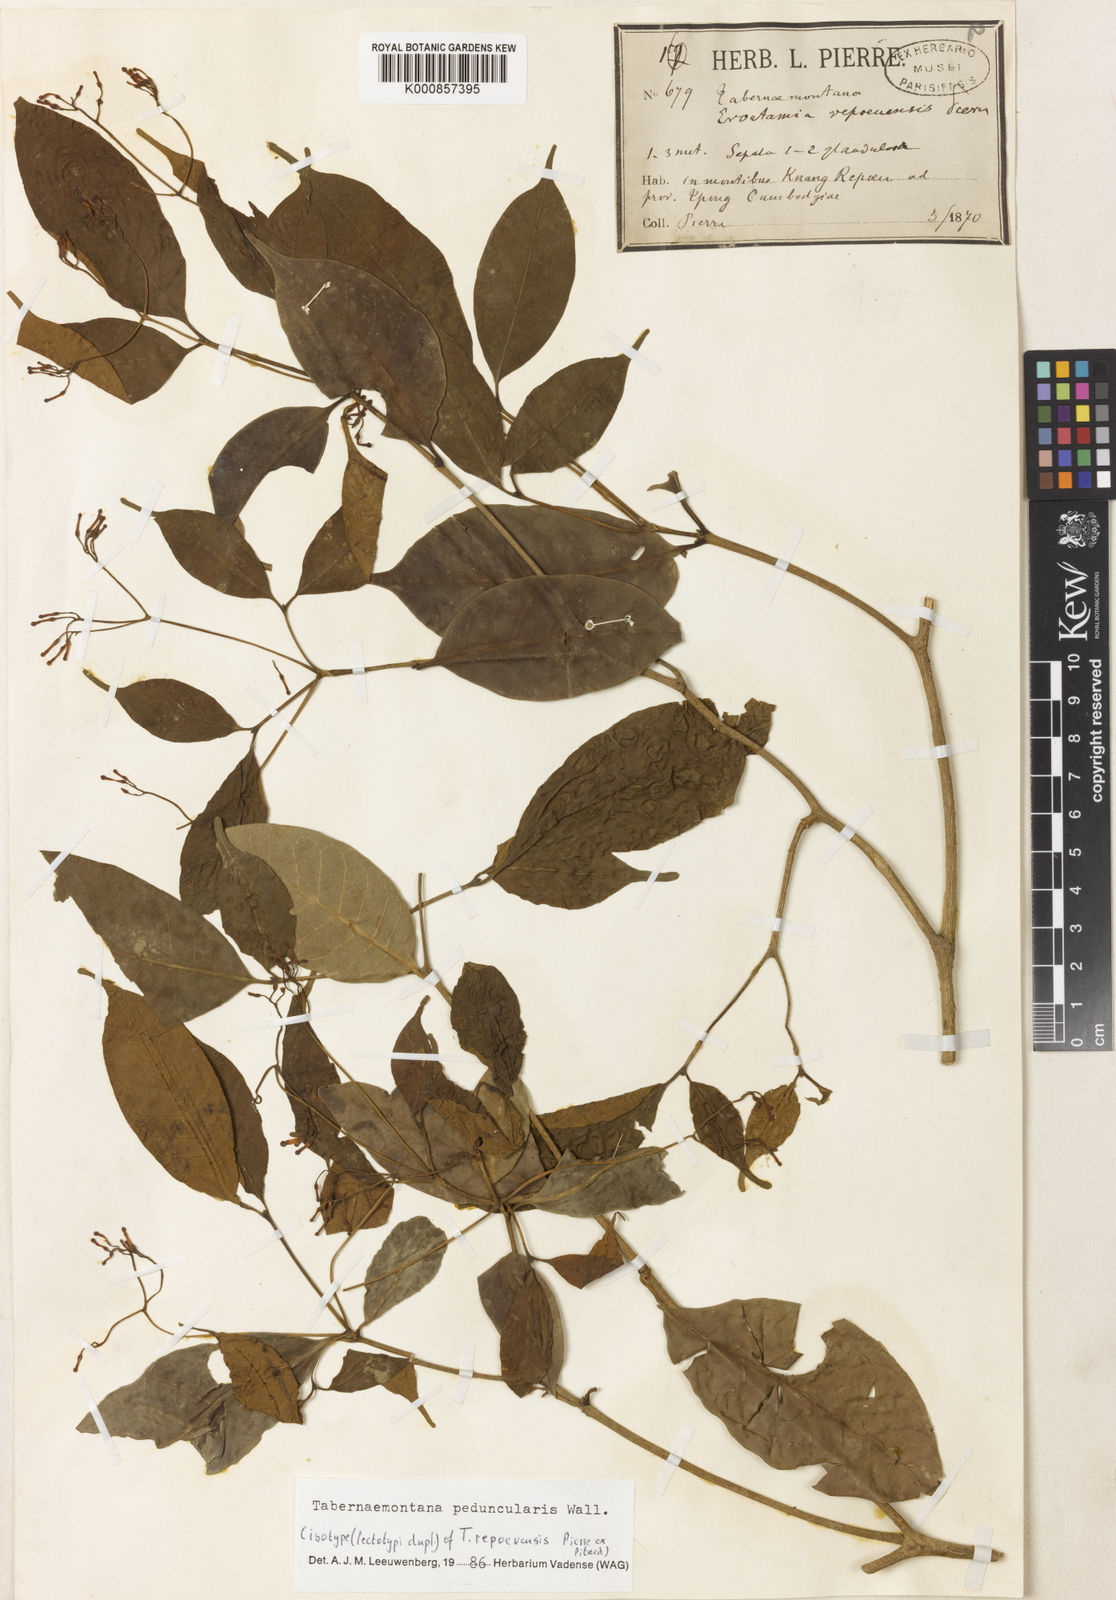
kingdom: Plantae
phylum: Tracheophyta
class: Magnoliopsida
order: Gentianales
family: Apocynaceae
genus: Tabernaemontana
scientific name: Tabernaemontana peduncularis
